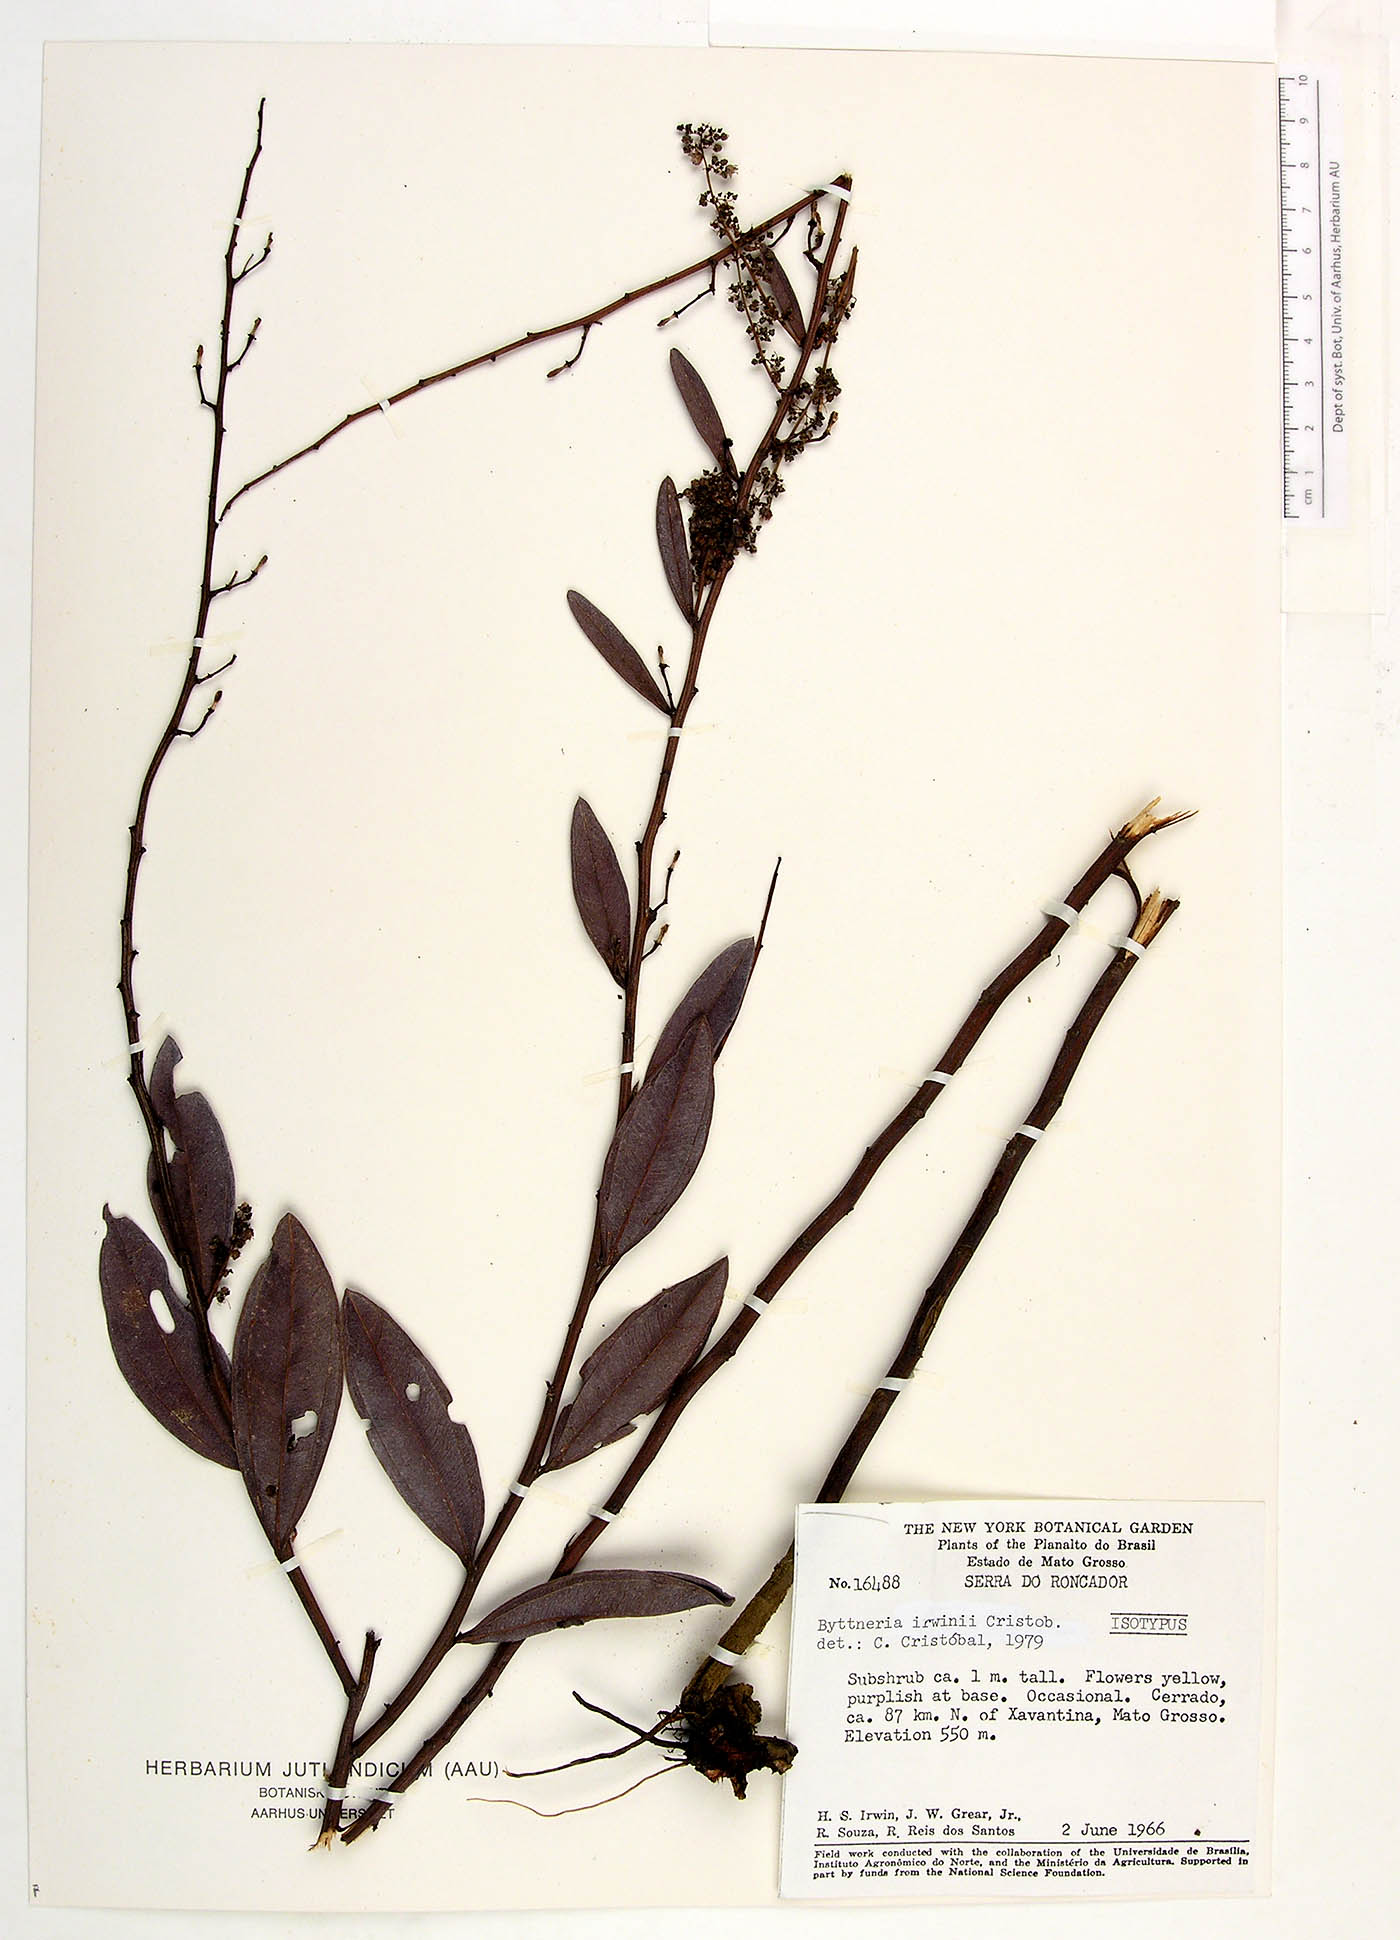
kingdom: Plantae
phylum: Tracheophyta
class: Magnoliopsida
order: Malvales
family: Malvaceae
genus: Byttneria
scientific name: Byttneria irwinii
